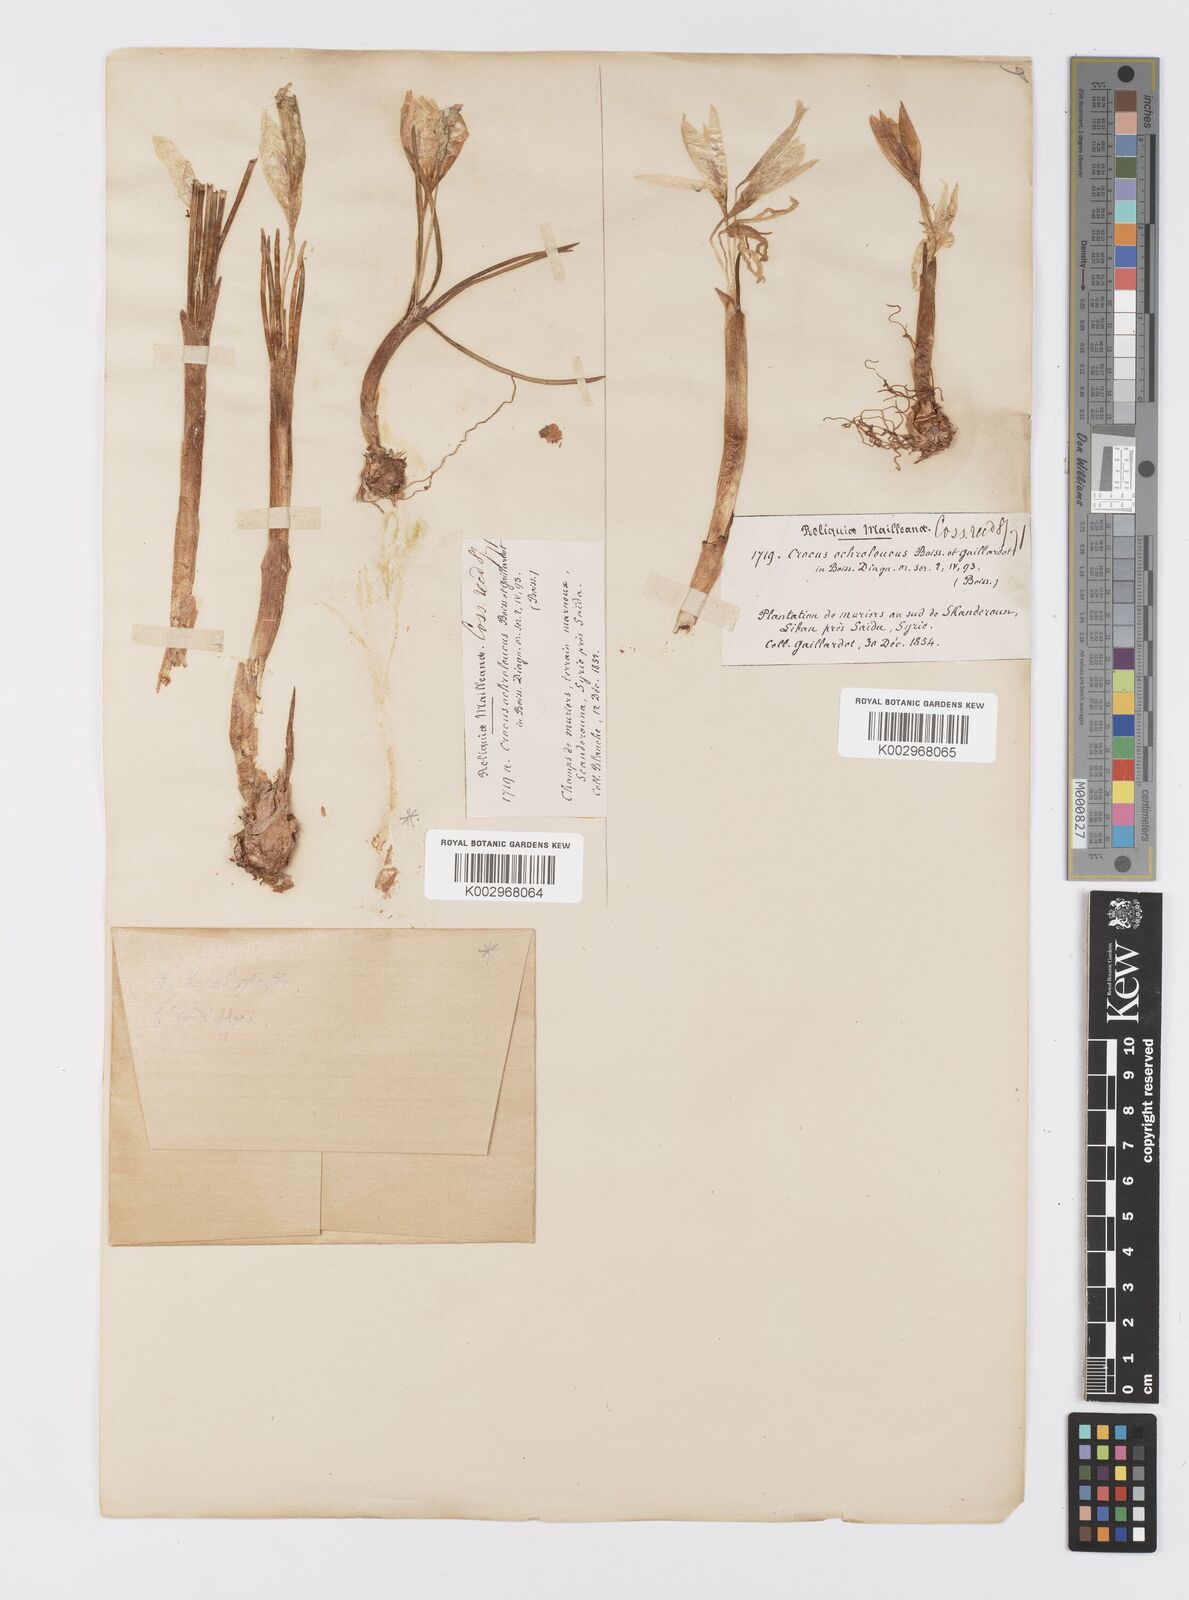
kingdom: Plantae
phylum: Tracheophyta
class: Liliopsida
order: Asparagales
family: Iridaceae
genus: Crocus
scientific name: Crocus ochroleucus
